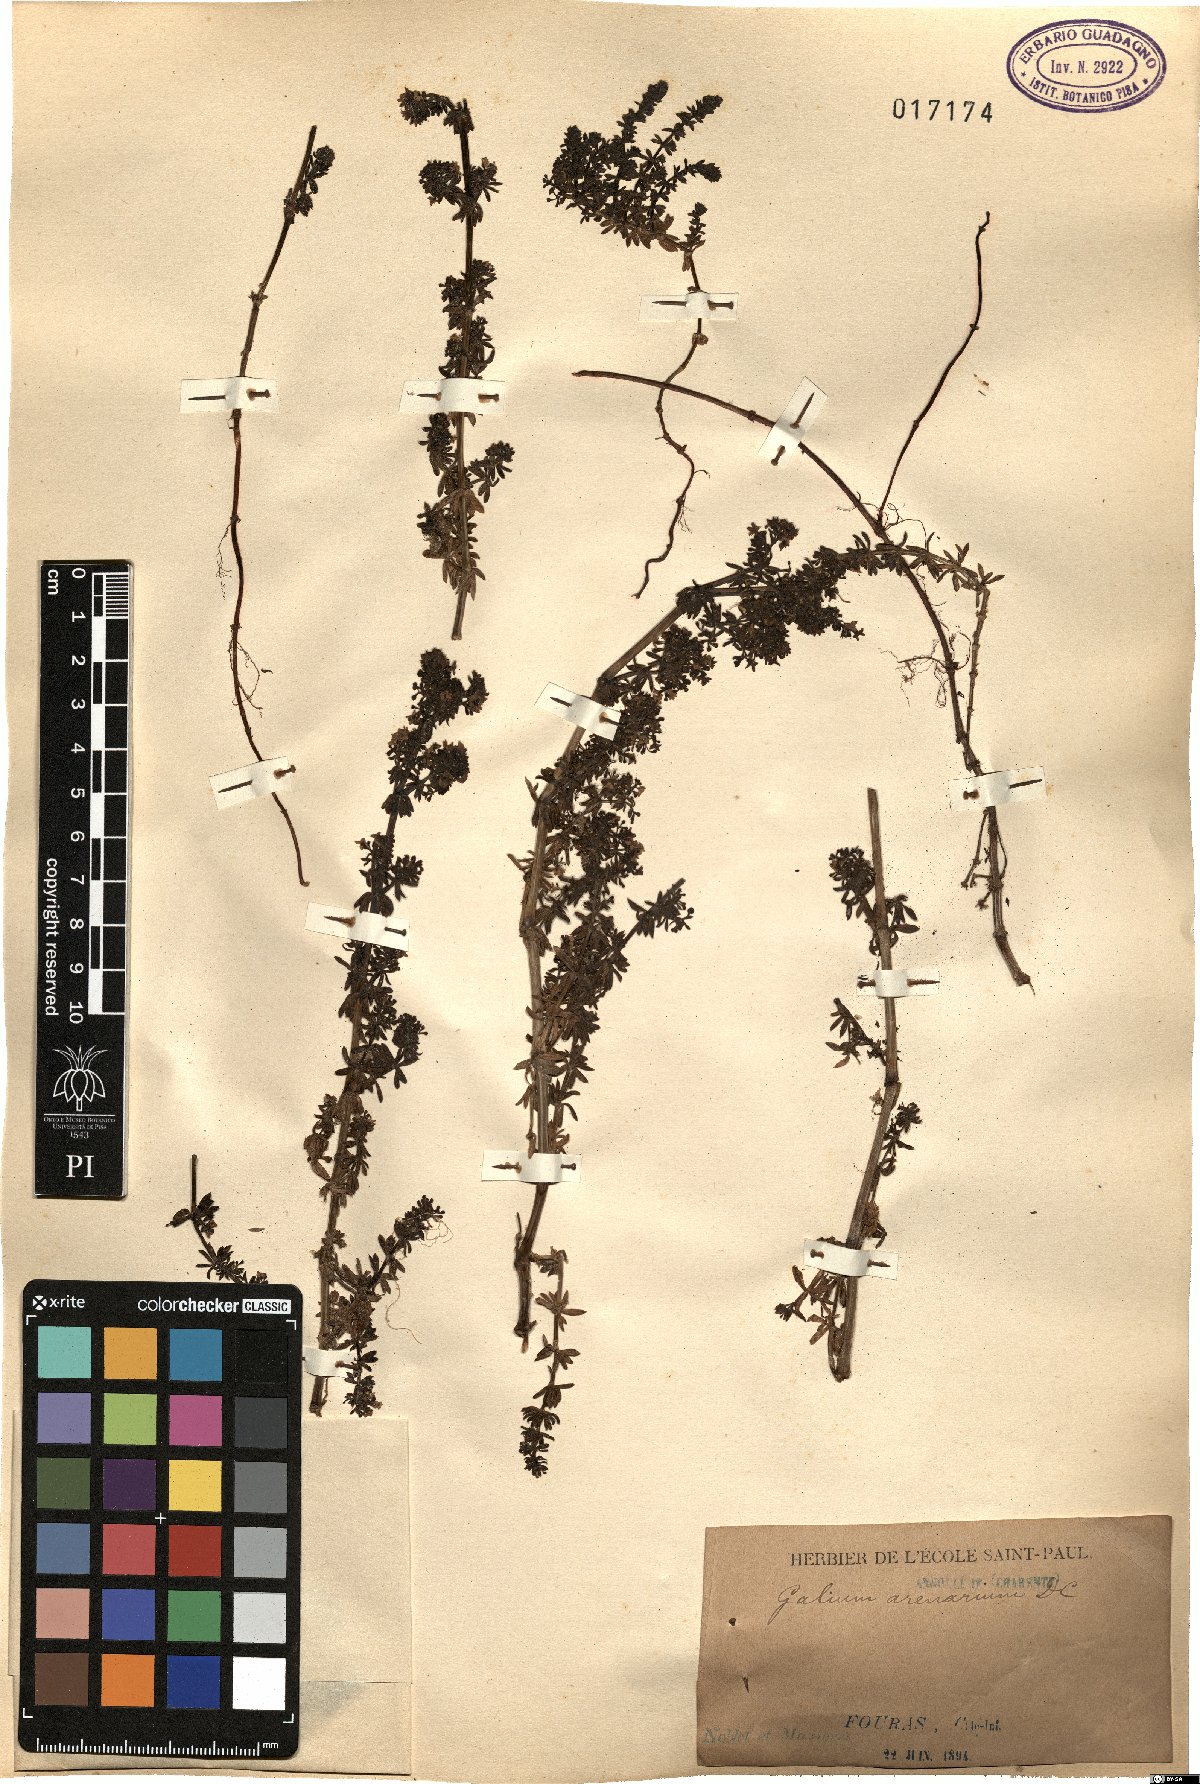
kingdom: Plantae
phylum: Tracheophyta
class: Magnoliopsida
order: Gentianales
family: Rubiaceae
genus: Galium
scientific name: Galium arenarium
